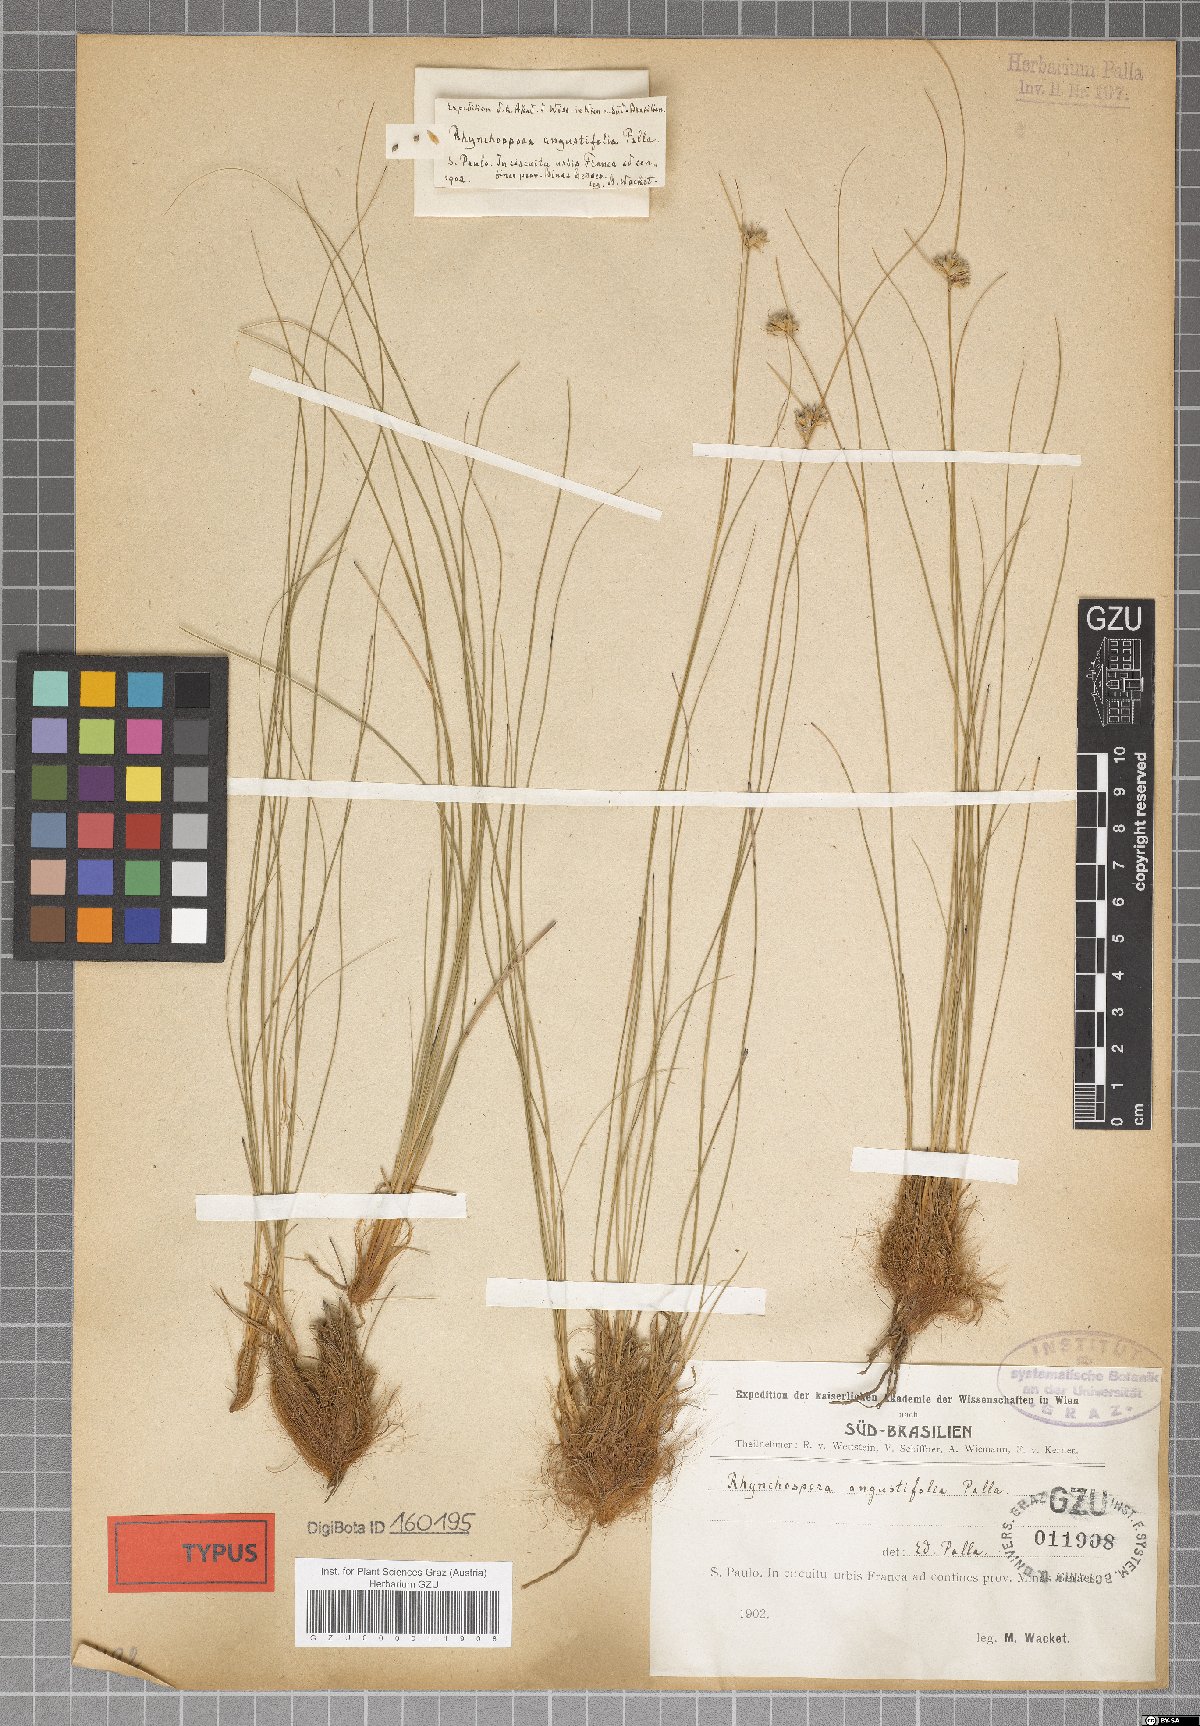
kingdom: Plantae
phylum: Tracheophyta
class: Liliopsida
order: Poales
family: Cyperaceae
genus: Rhynchospora
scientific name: Rhynchospora angustifolia
